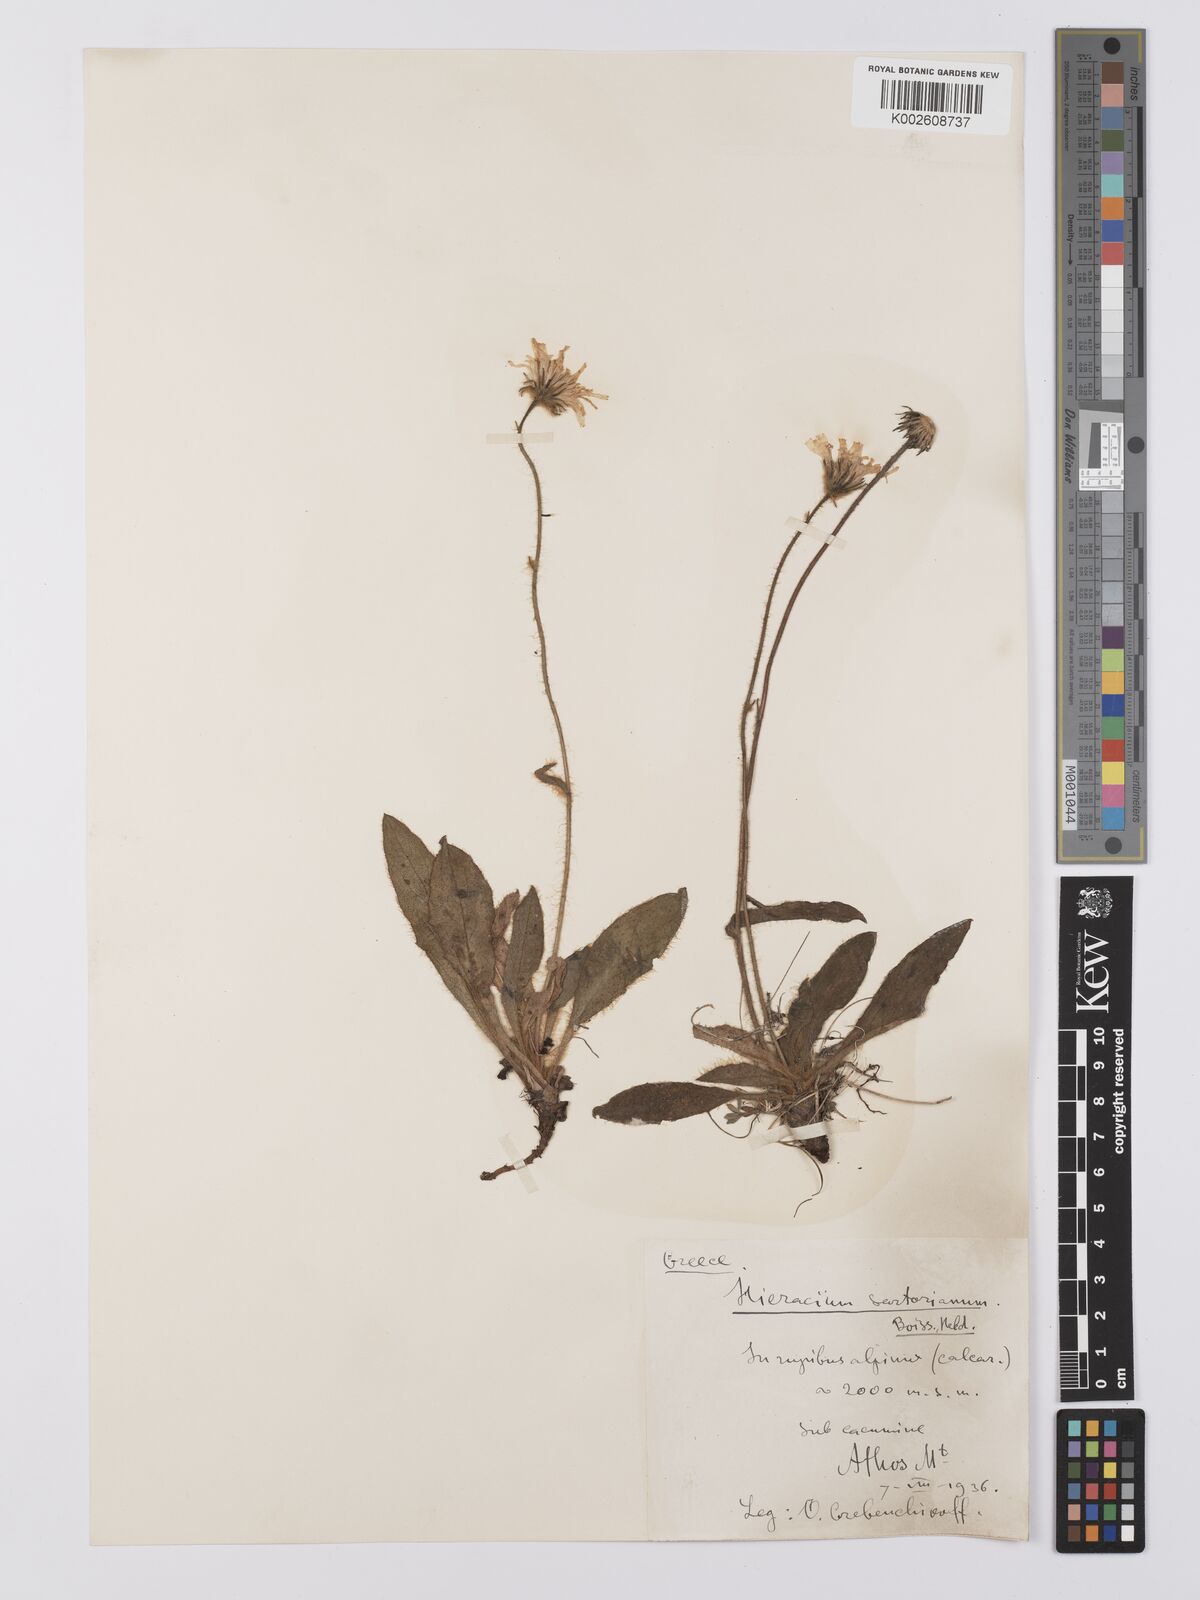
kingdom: Plantae
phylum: Tracheophyta
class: Magnoliopsida
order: Asterales
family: Asteraceae
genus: Hieracium
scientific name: Hieracium sartorianum
